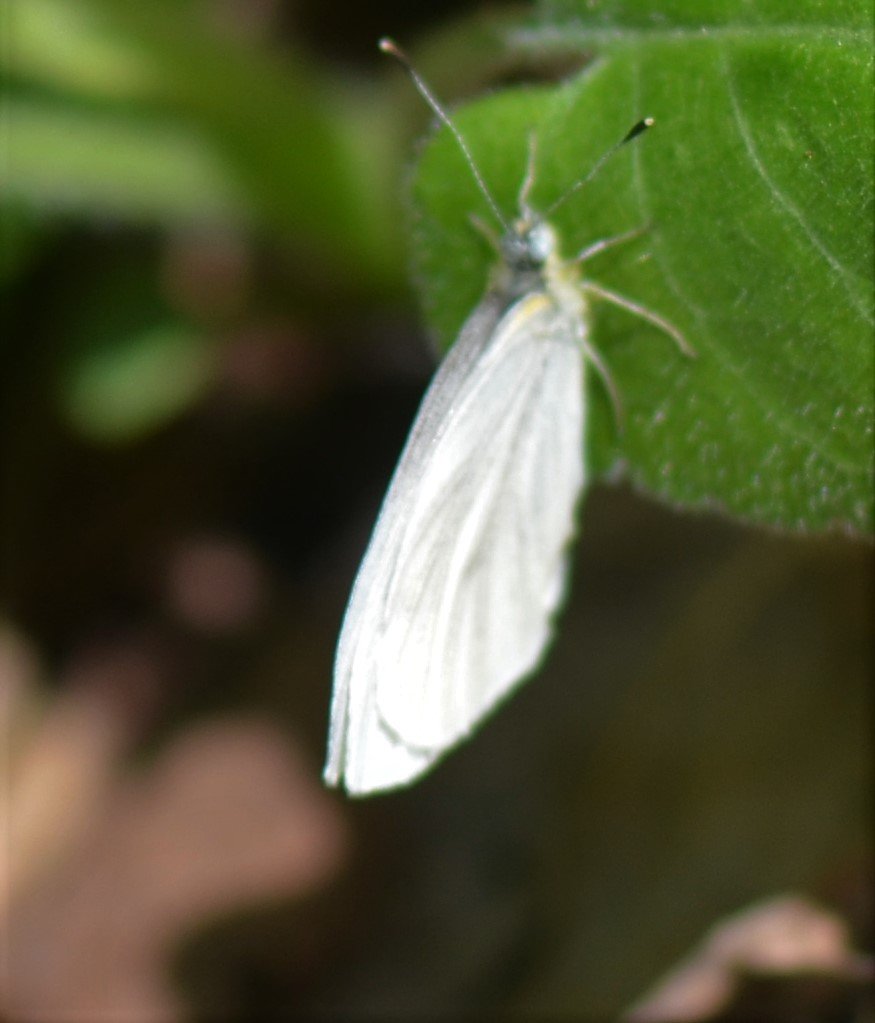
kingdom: Animalia
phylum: Arthropoda
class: Insecta
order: Lepidoptera
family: Pieridae
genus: Pieris
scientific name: Pieris virginiensis
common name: West Virginia White
